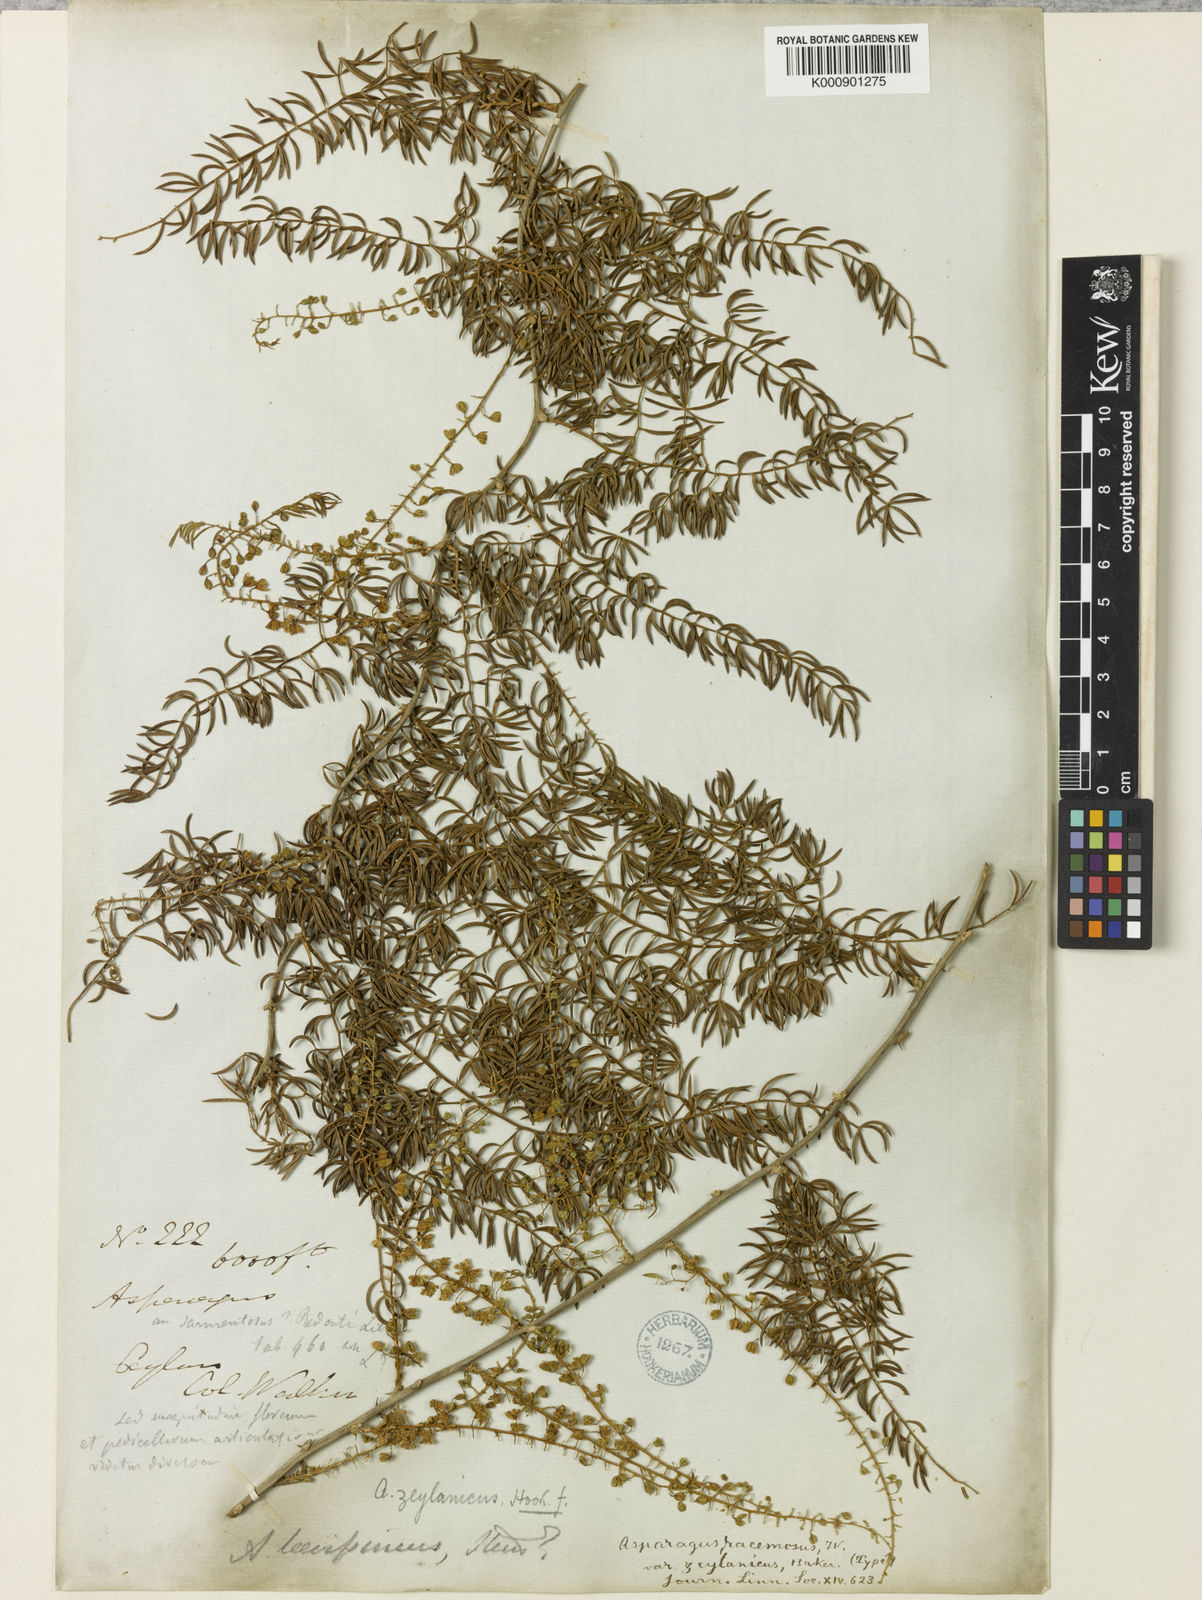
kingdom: Plantae
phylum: Tracheophyta
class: Liliopsida
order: Asparagales
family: Asparagaceae
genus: Asparagus
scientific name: Asparagus racemosus
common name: Asparagus-fern
